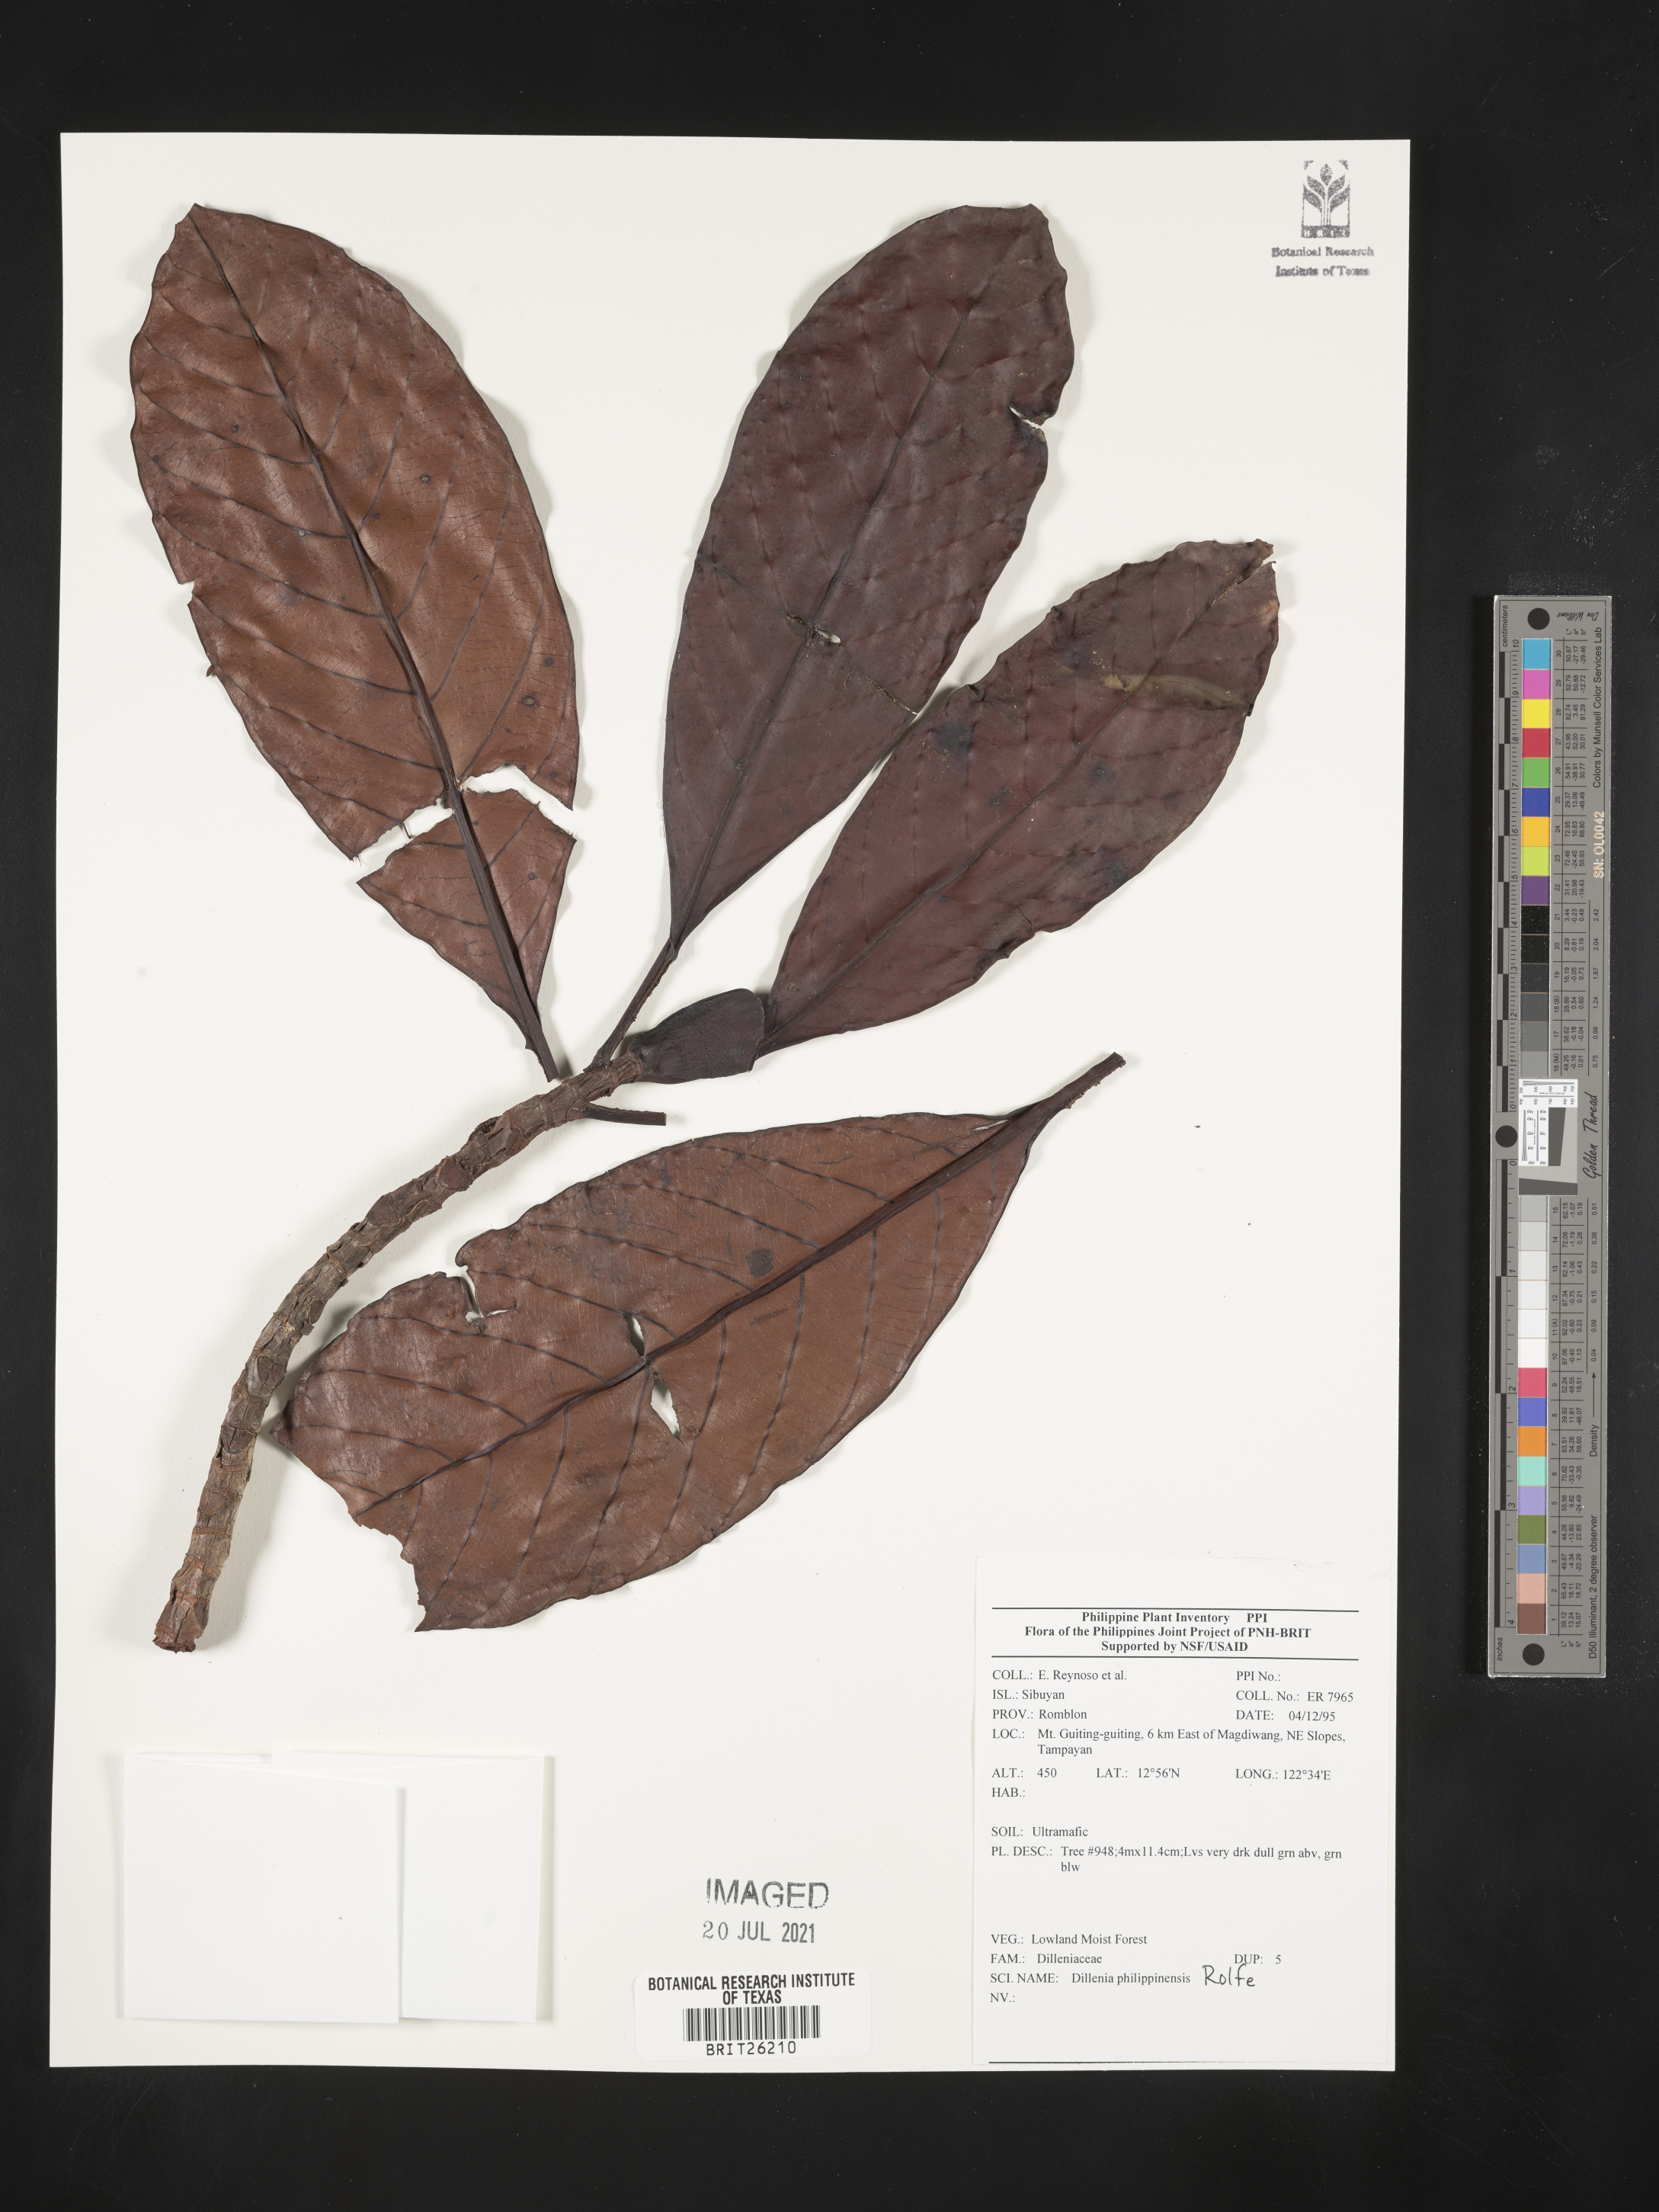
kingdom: Plantae
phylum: Tracheophyta
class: Magnoliopsida
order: Dilleniales
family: Dilleniaceae
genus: Dillenia
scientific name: Dillenia philippinensis
